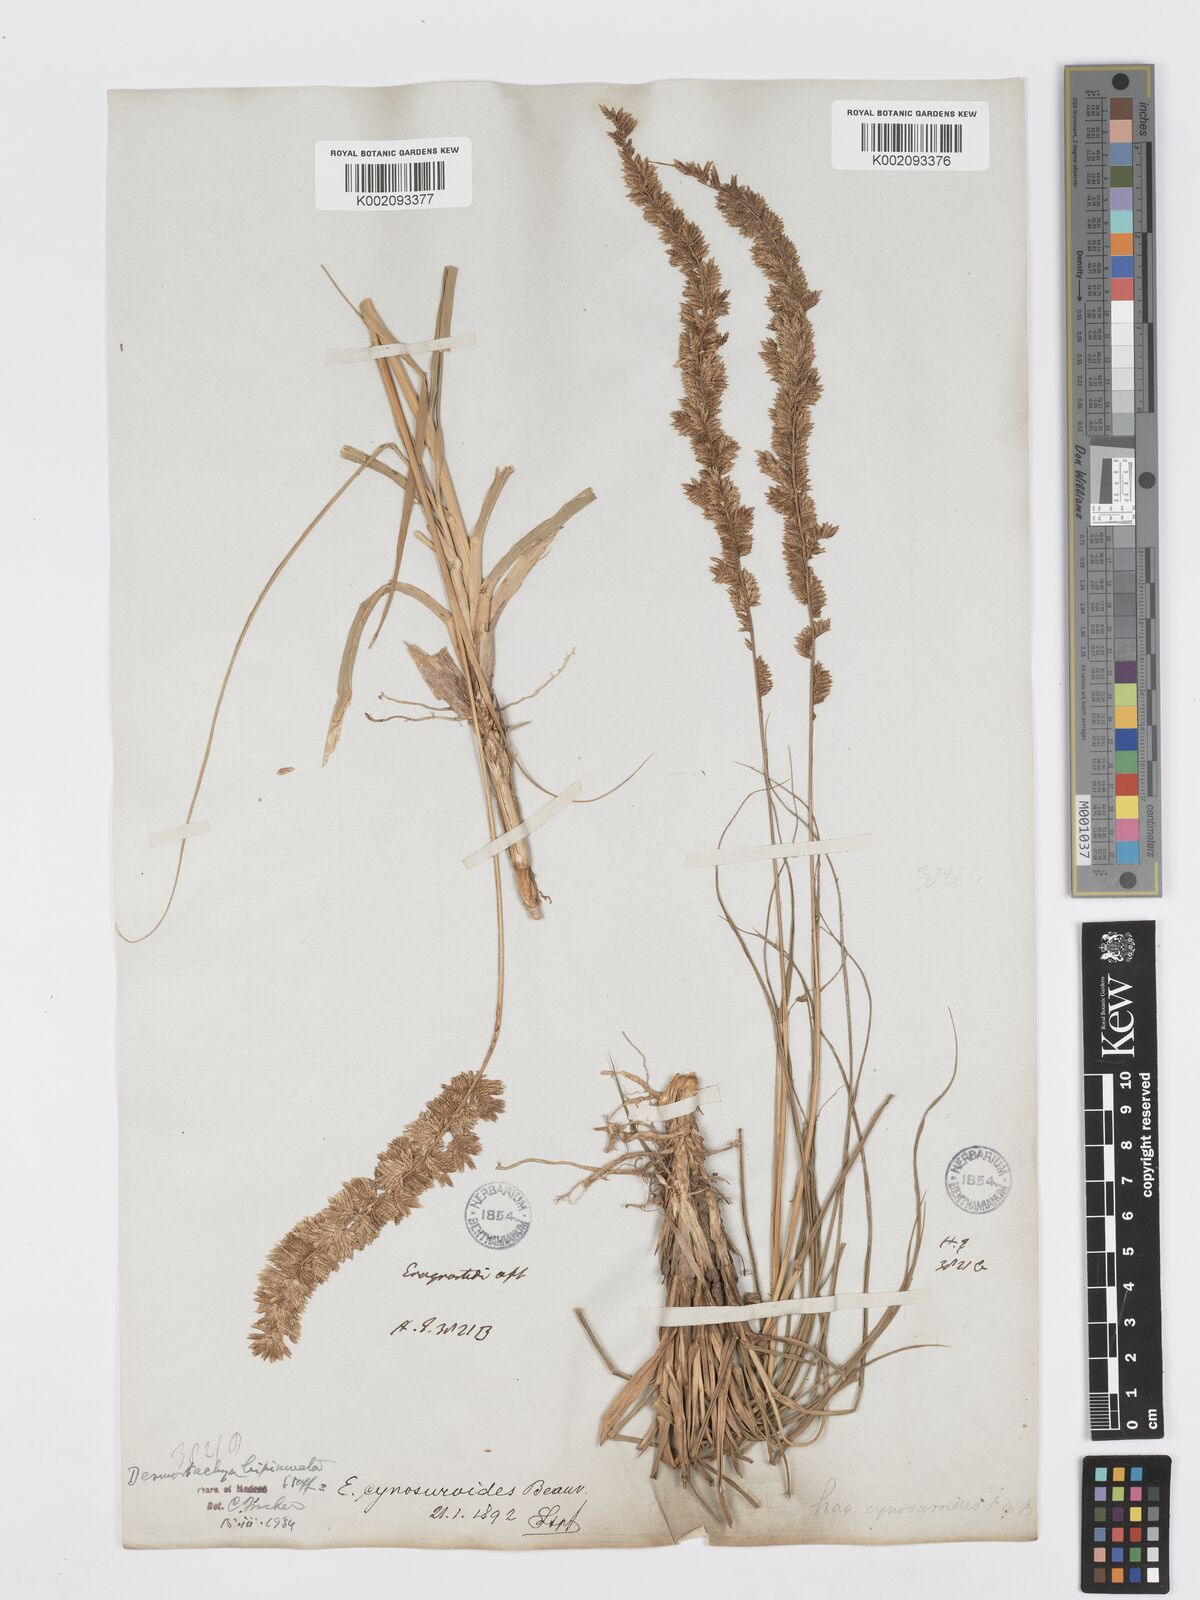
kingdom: Plantae
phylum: Tracheophyta
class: Liliopsida
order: Poales
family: Poaceae
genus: Desmostachya
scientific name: Desmostachya bipinnata
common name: Crowfoot grass
